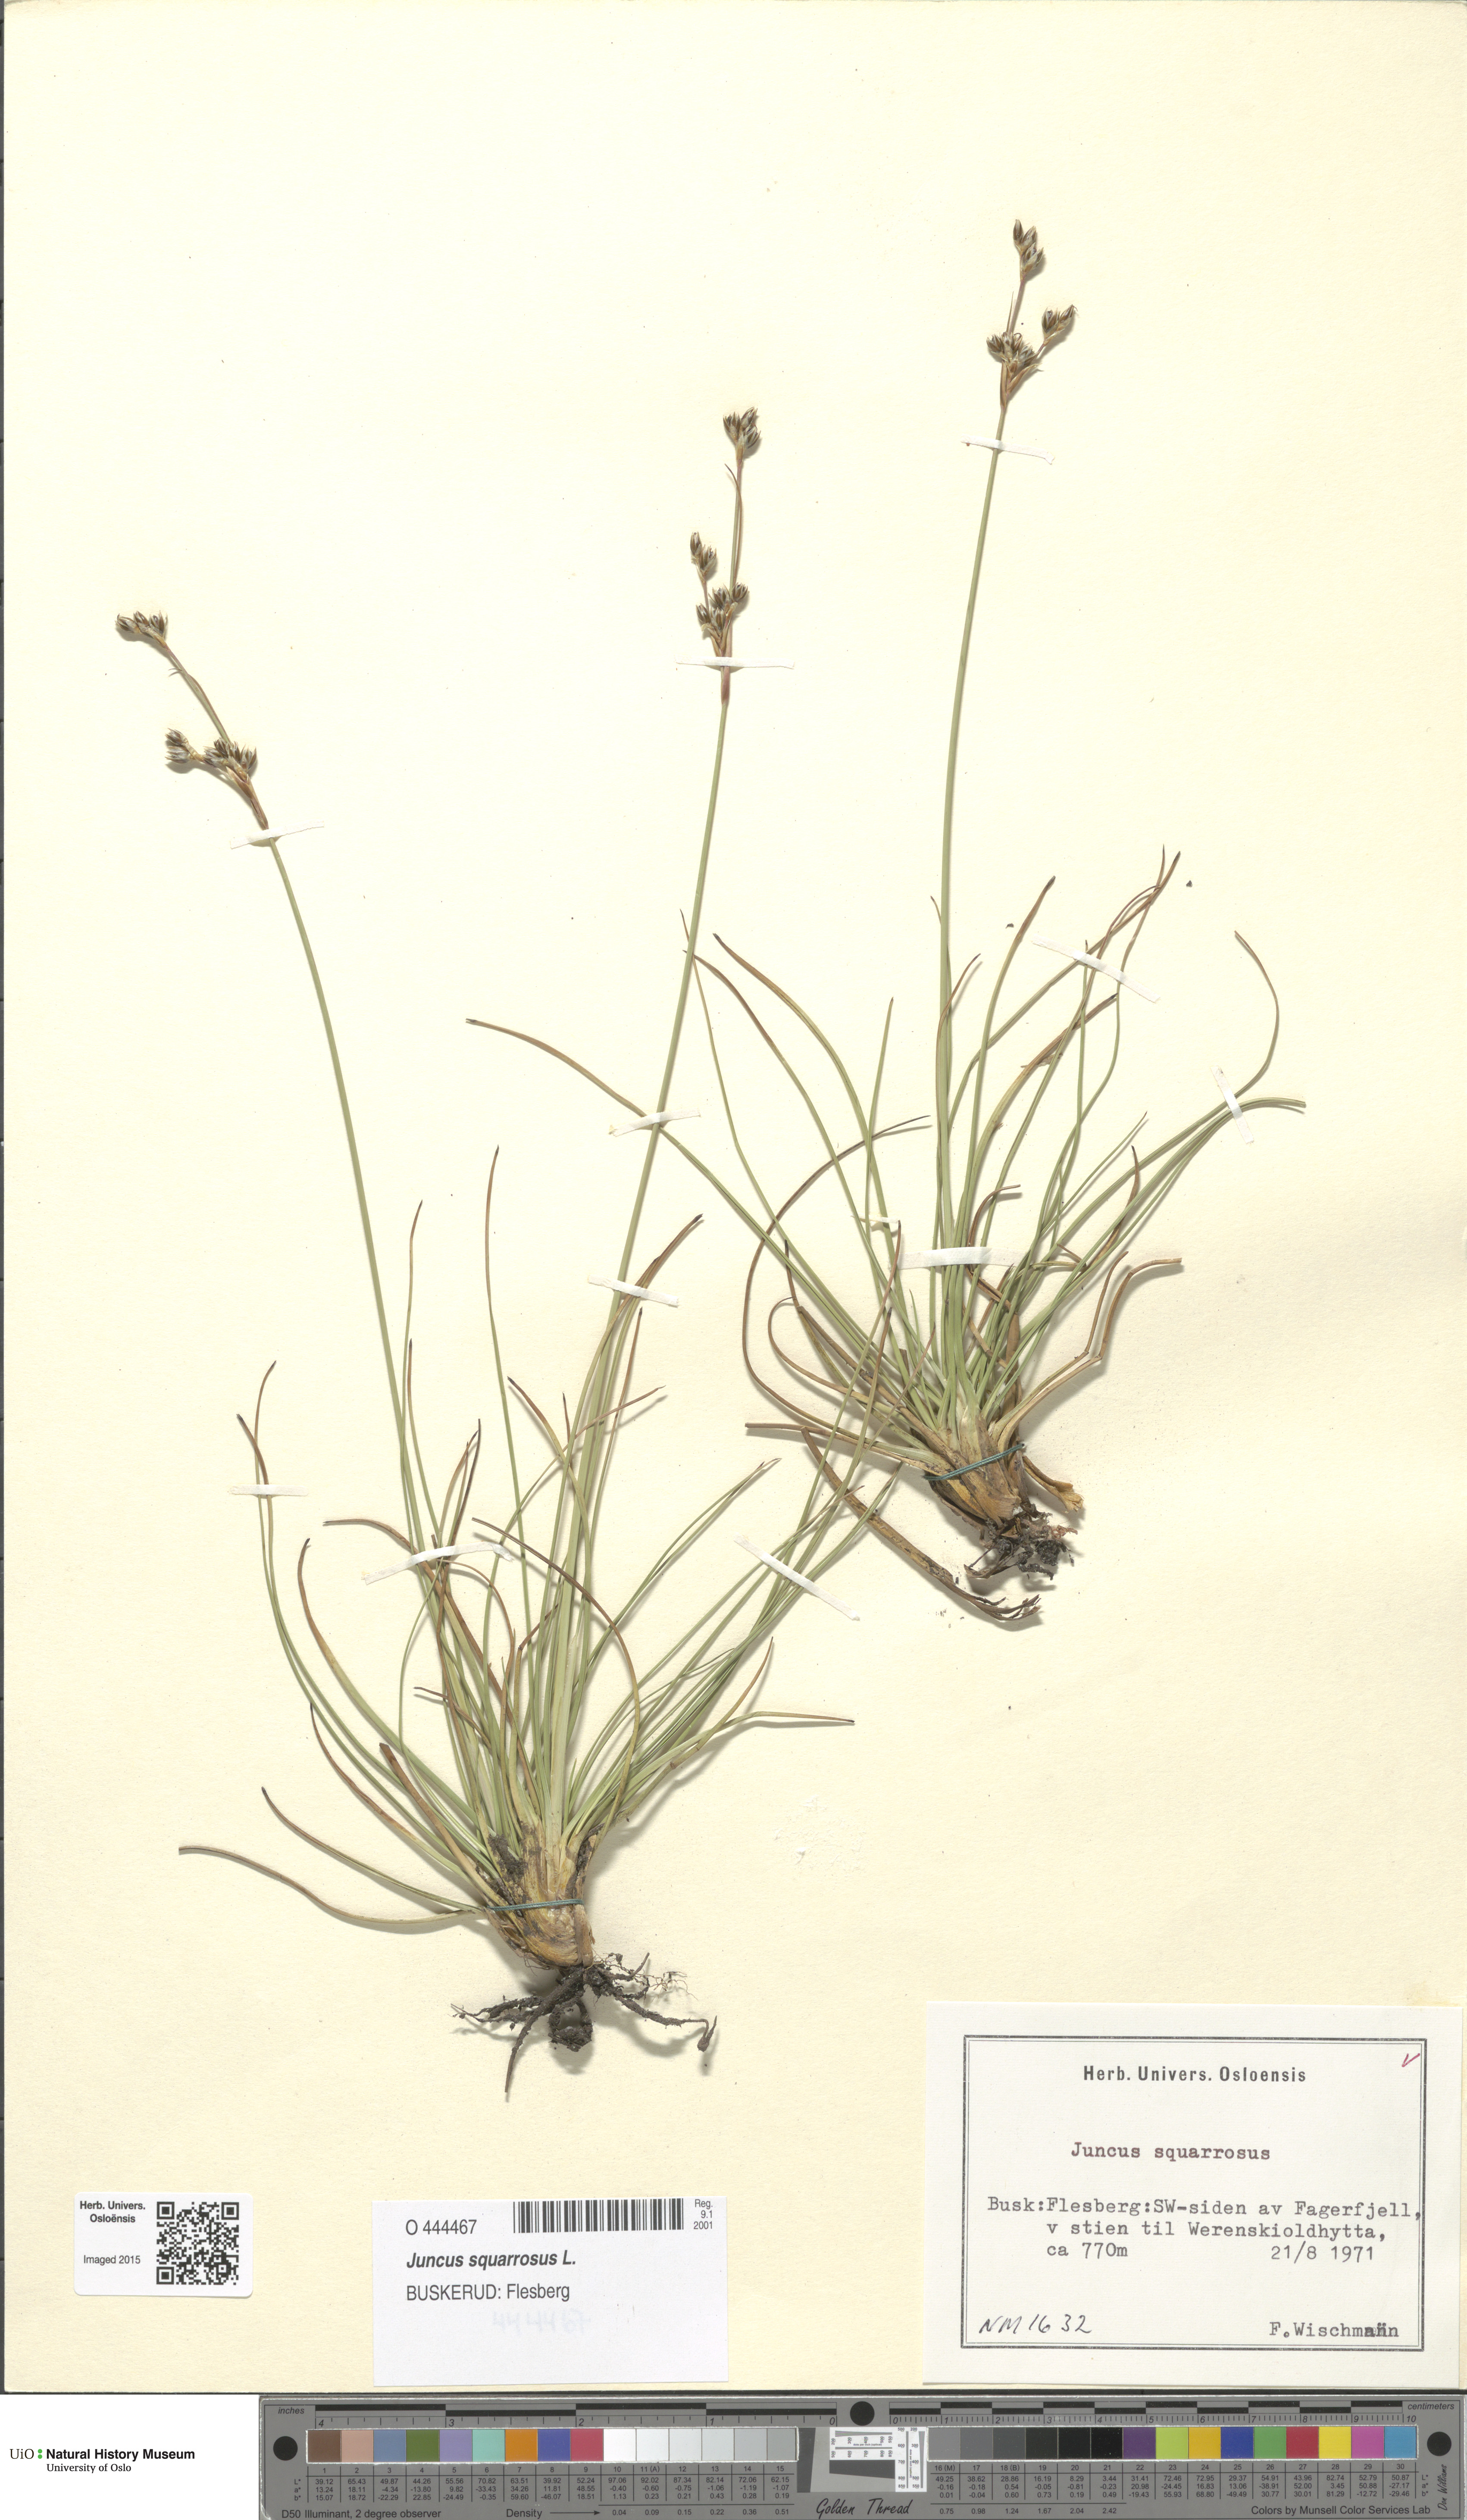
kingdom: Plantae
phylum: Tracheophyta
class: Liliopsida
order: Poales
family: Juncaceae
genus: Juncus
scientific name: Juncus squarrosus
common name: Heath rush
